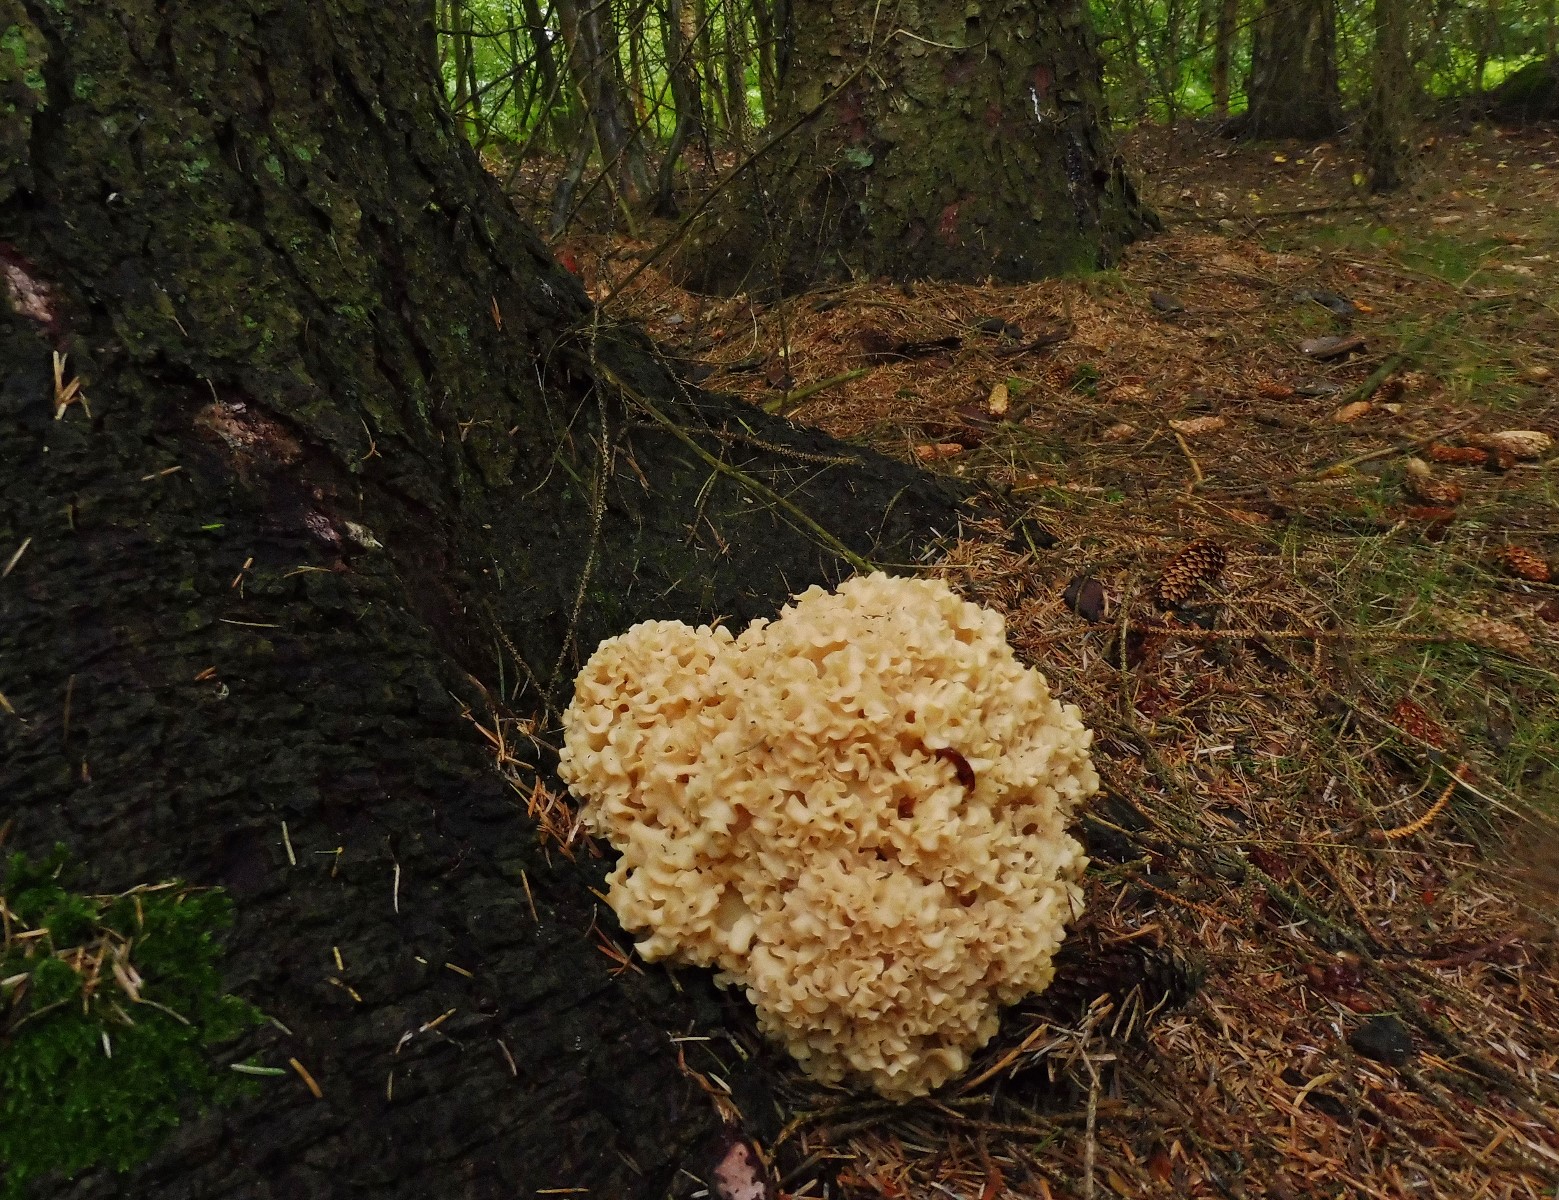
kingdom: Fungi
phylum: Basidiomycota
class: Agaricomycetes
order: Polyporales
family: Sparassidaceae
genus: Sparassis
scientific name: Sparassis crispa
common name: kruset blomkålssvamp
